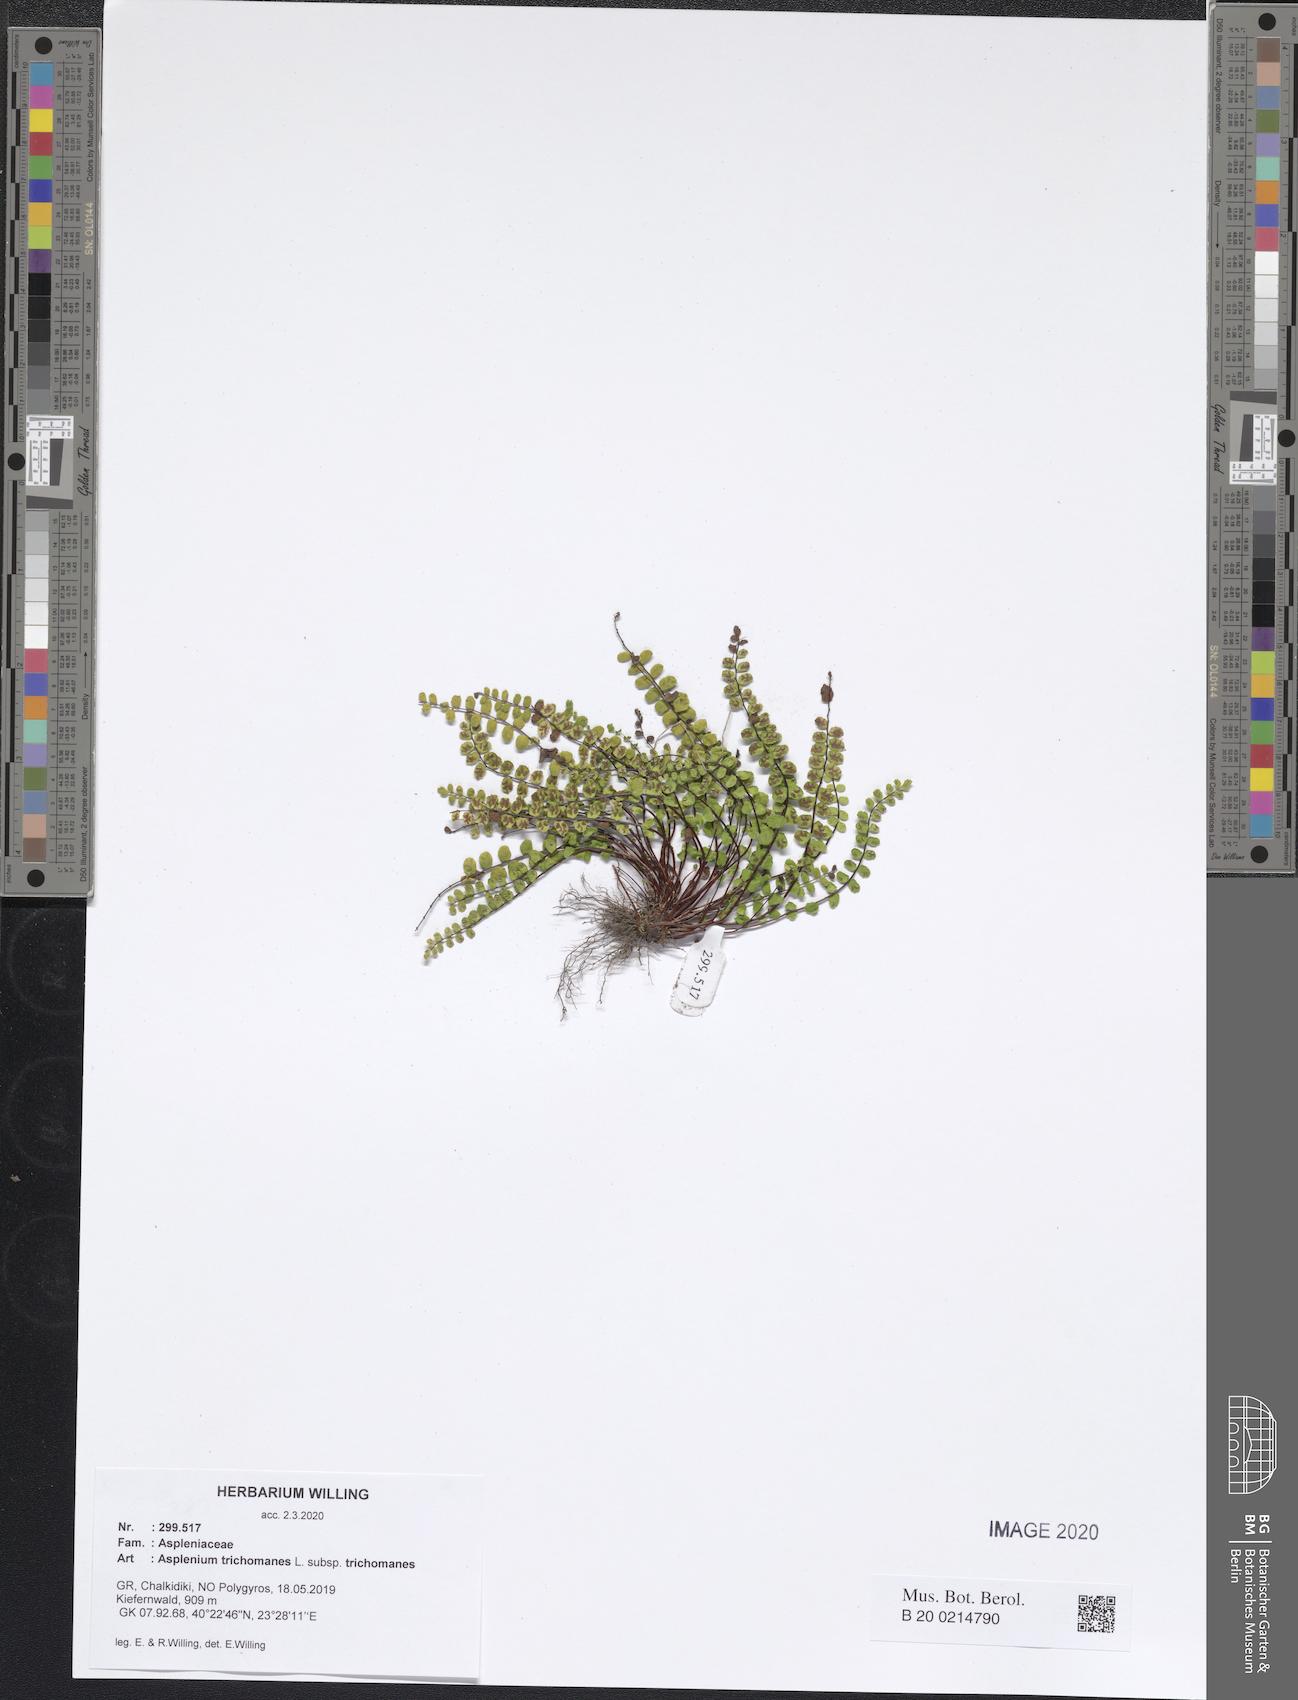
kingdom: Plantae
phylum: Tracheophyta
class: Polypodiopsida
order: Polypodiales
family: Aspleniaceae
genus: Asplenium
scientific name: Asplenium trichomanes
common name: Maidenhair spleenwort
